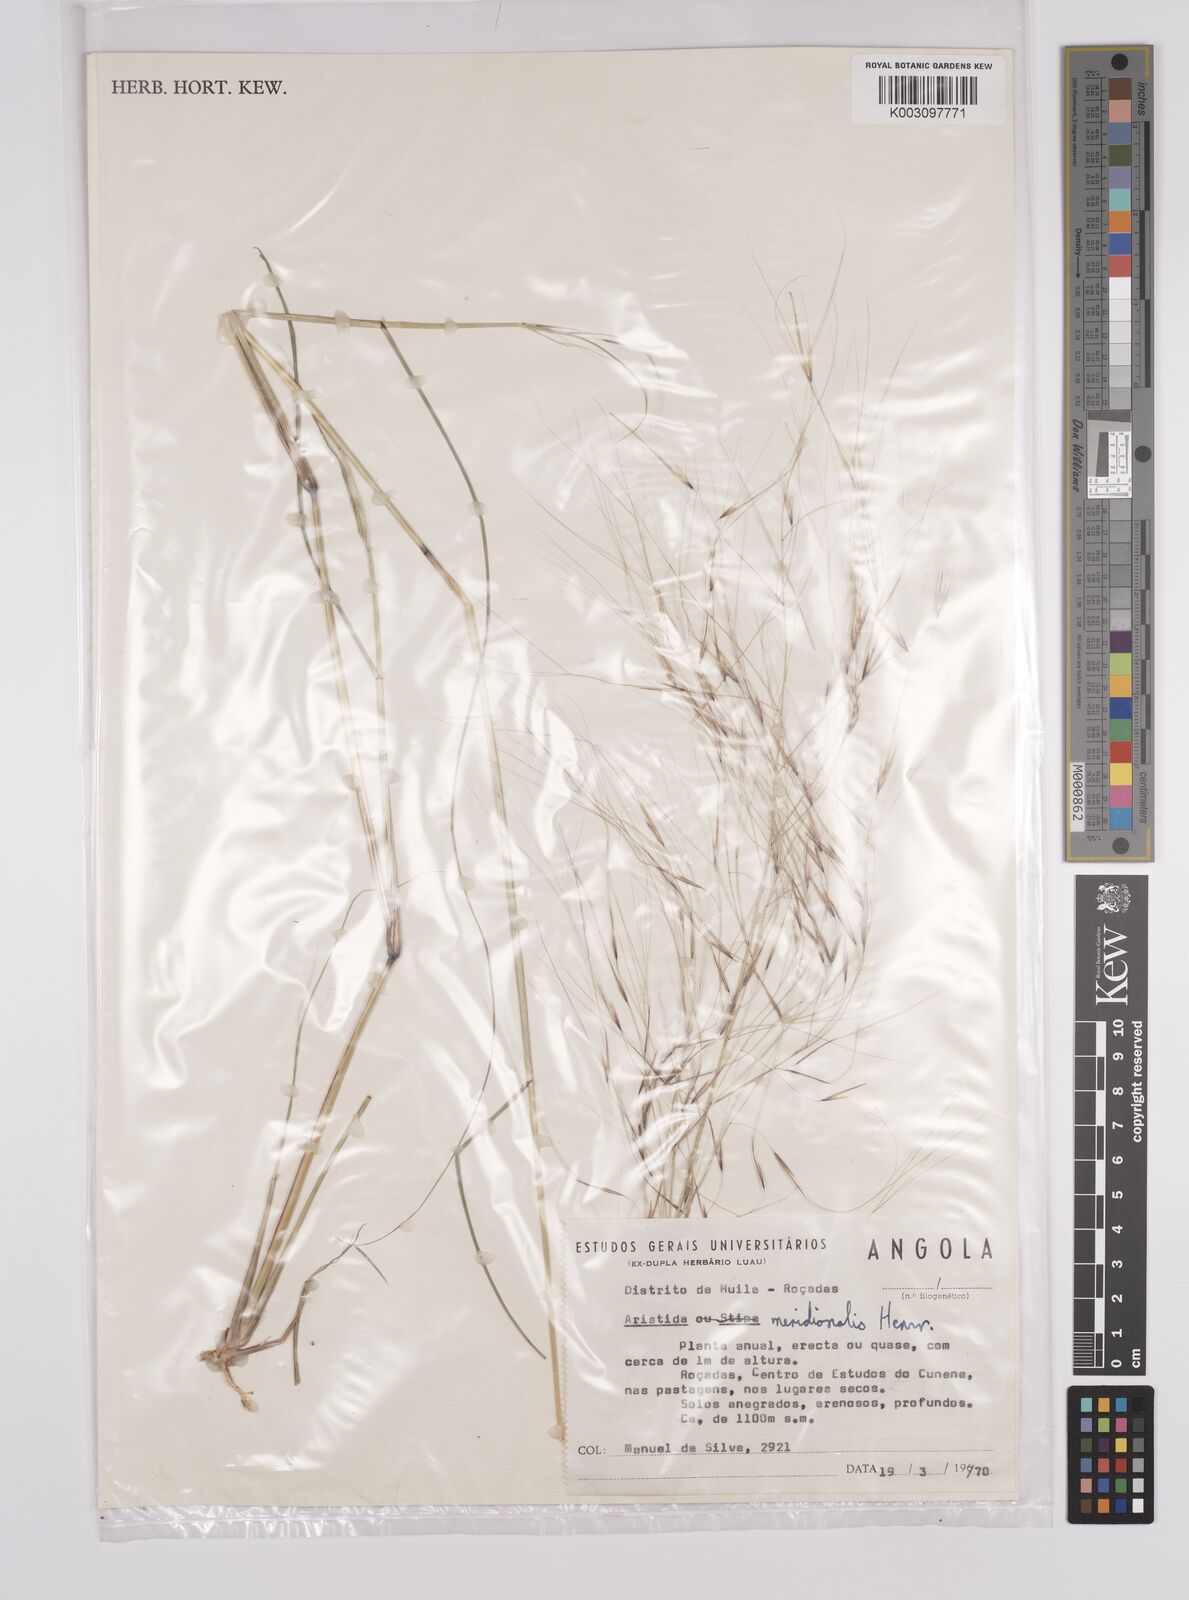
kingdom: Plantae
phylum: Tracheophyta
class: Liliopsida
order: Poales
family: Poaceae
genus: Aristida
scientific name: Aristida meridionalis
